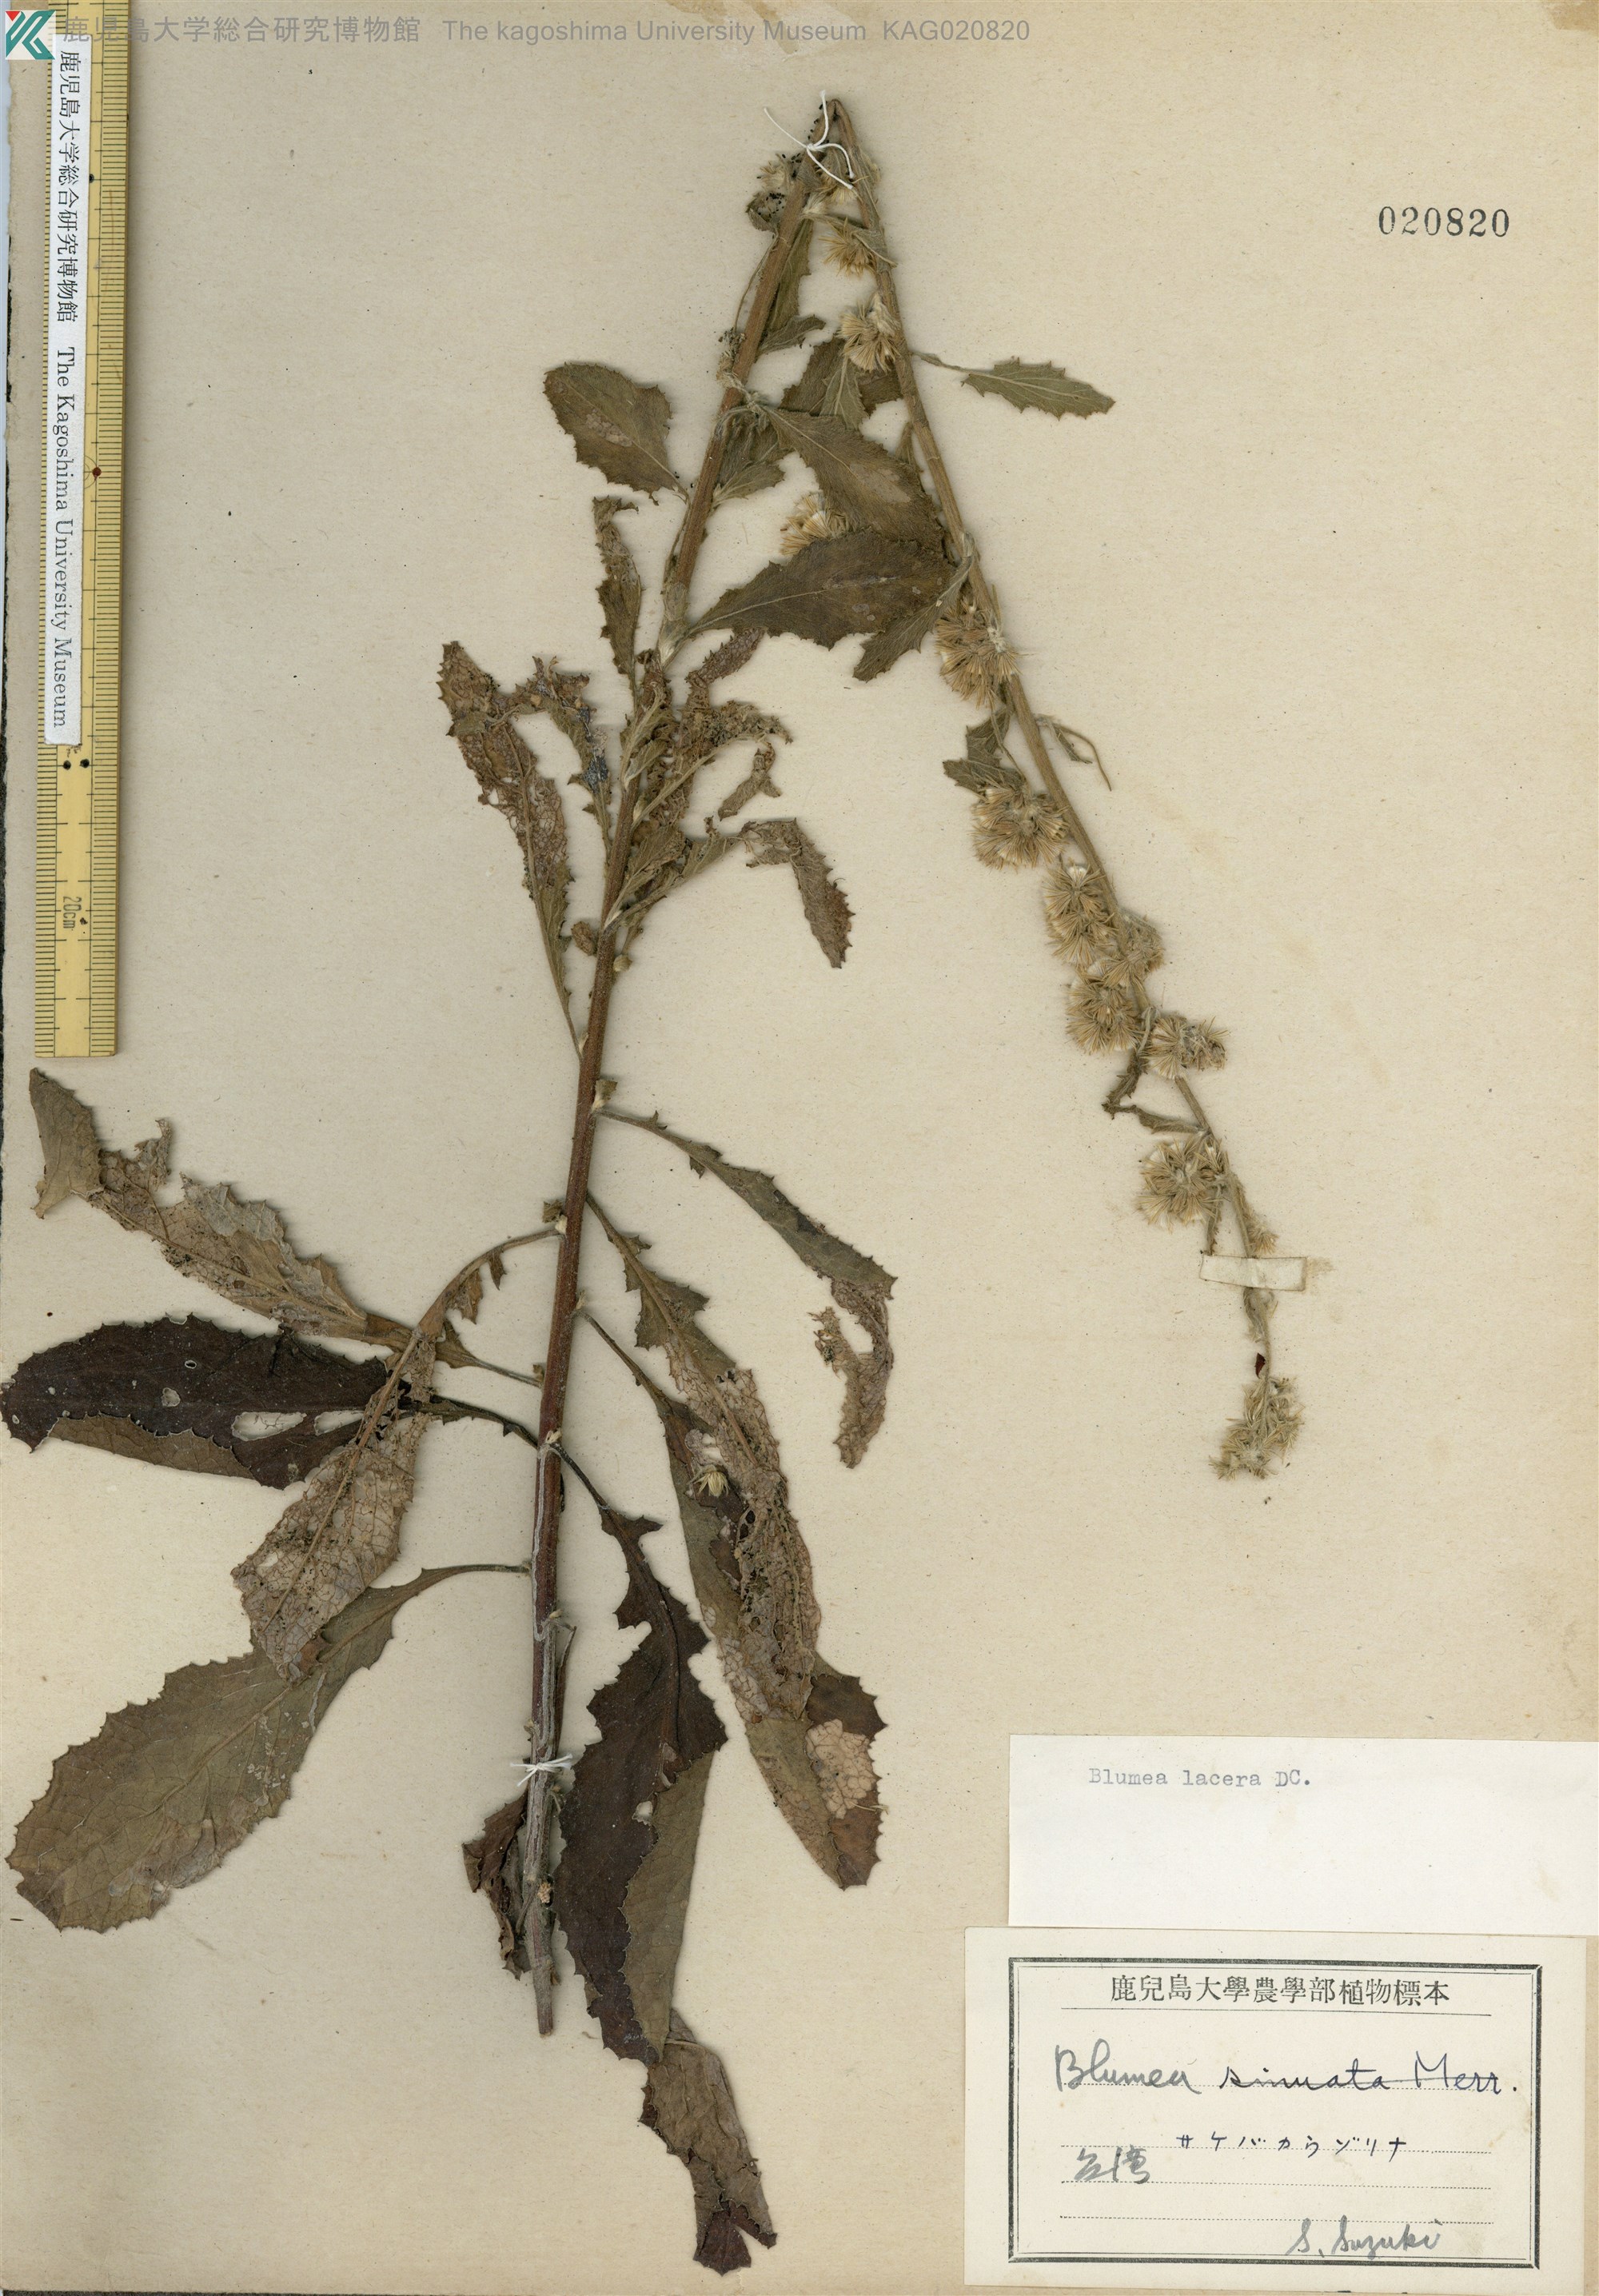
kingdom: Plantae
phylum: Tracheophyta
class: Magnoliopsida
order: Asterales
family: Asteraceae
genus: Blumea
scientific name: Blumea lacera
